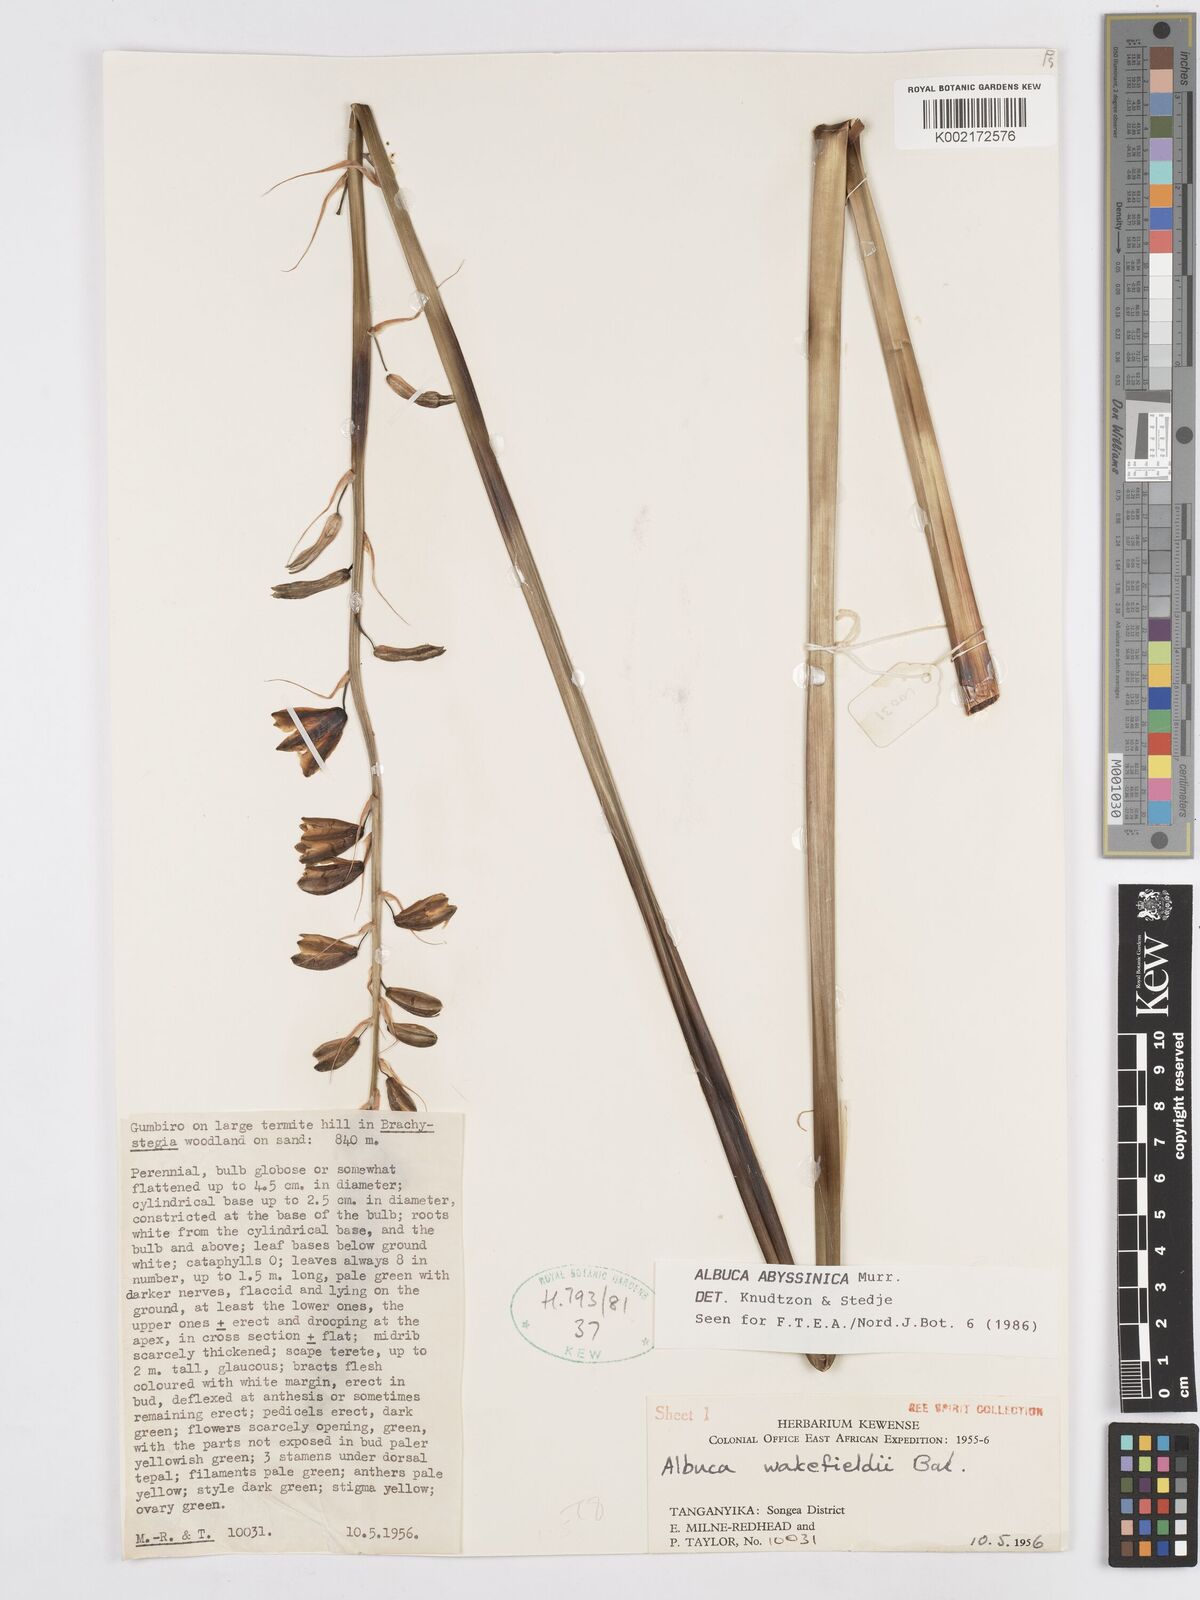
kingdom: Plantae
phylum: Tracheophyta
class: Liliopsida
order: Asparagales
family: Asparagaceae
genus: Albuca
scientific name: Albuca abyssinica
